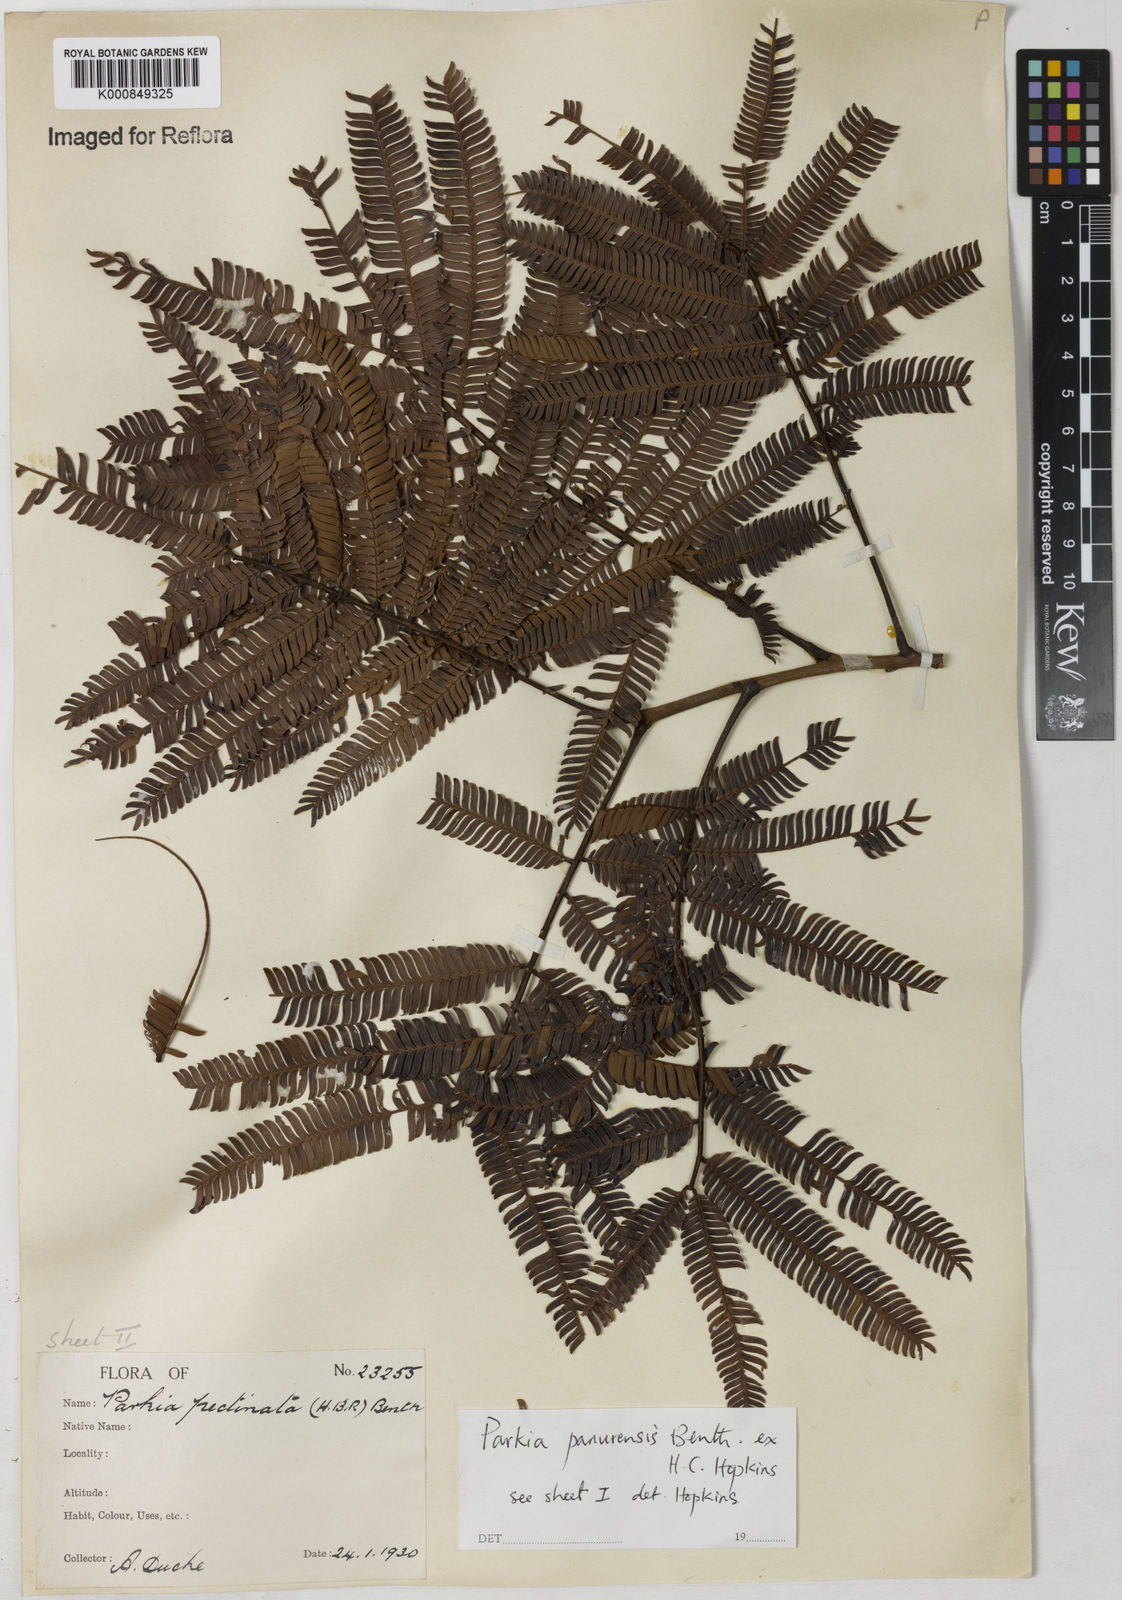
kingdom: Plantae
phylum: Tracheophyta
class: Magnoliopsida
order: Fabales
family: Fabaceae
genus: Parkia
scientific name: Parkia pectinata
